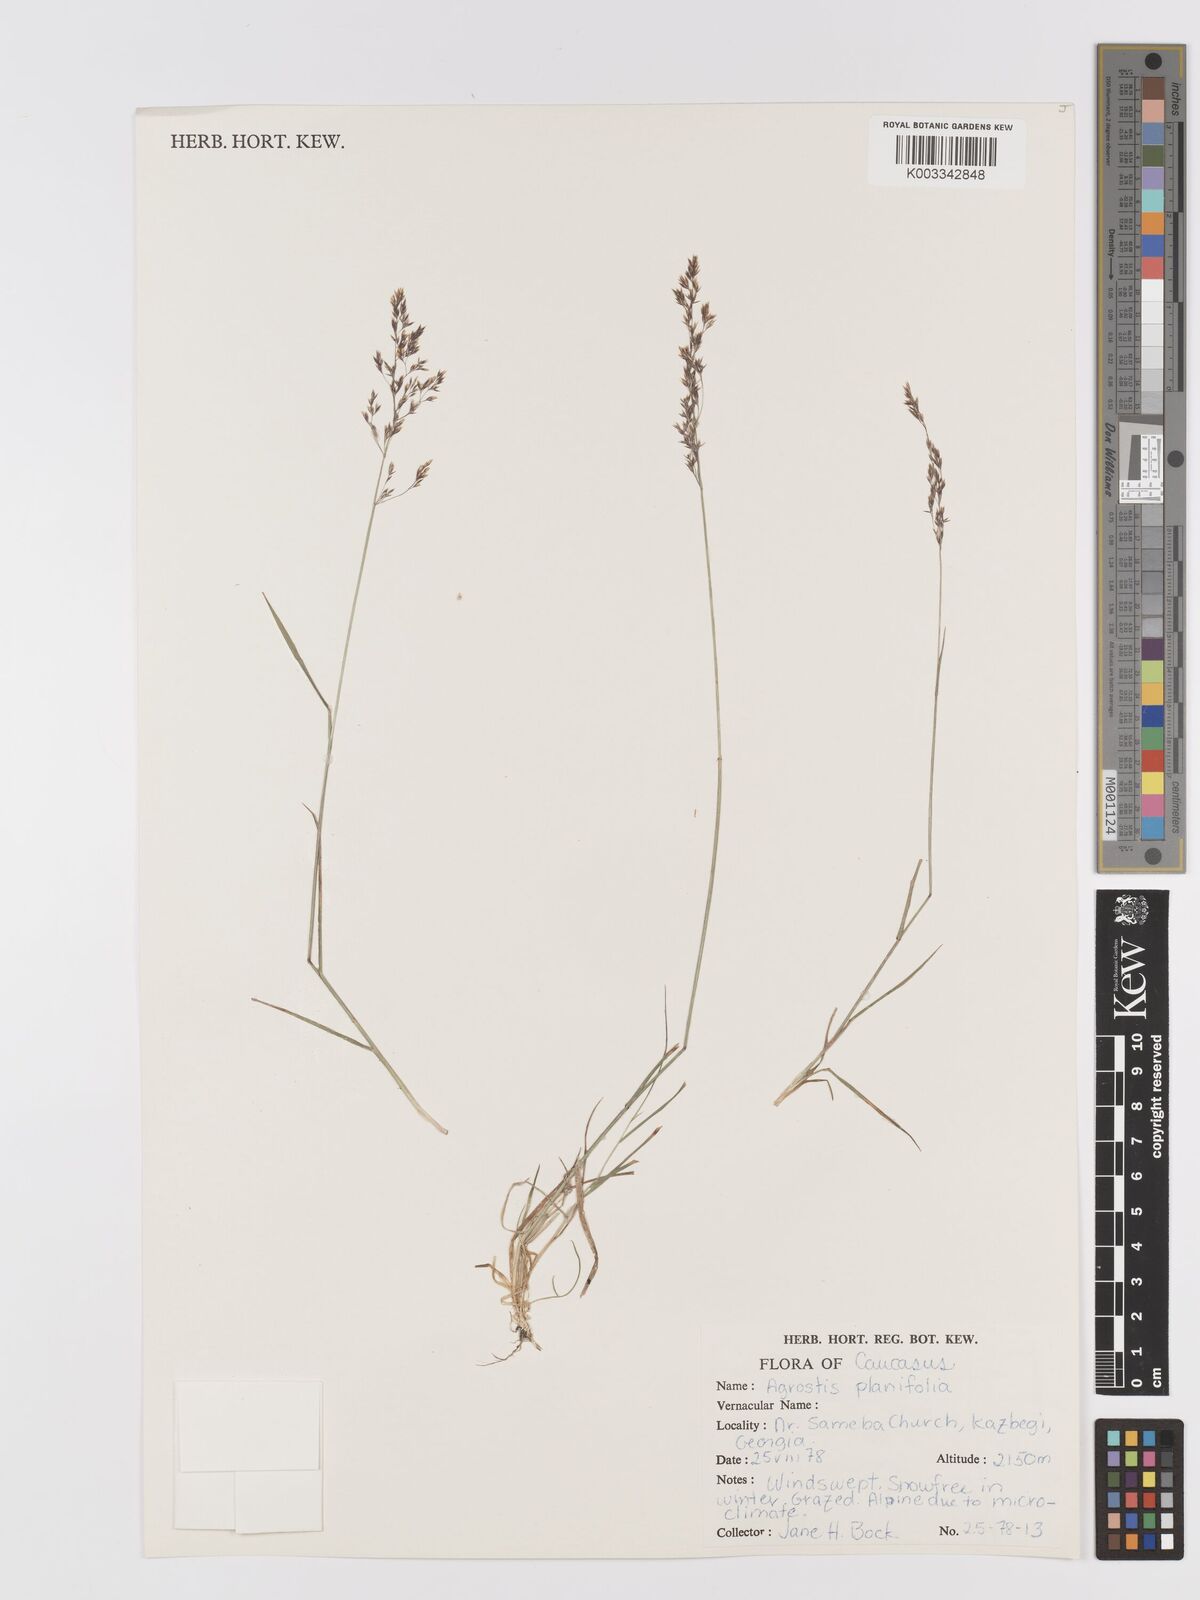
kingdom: Plantae
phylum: Tracheophyta
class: Liliopsida
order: Poales
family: Poaceae
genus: Agrostis
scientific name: Agrostis vinealis
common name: Brown bent
